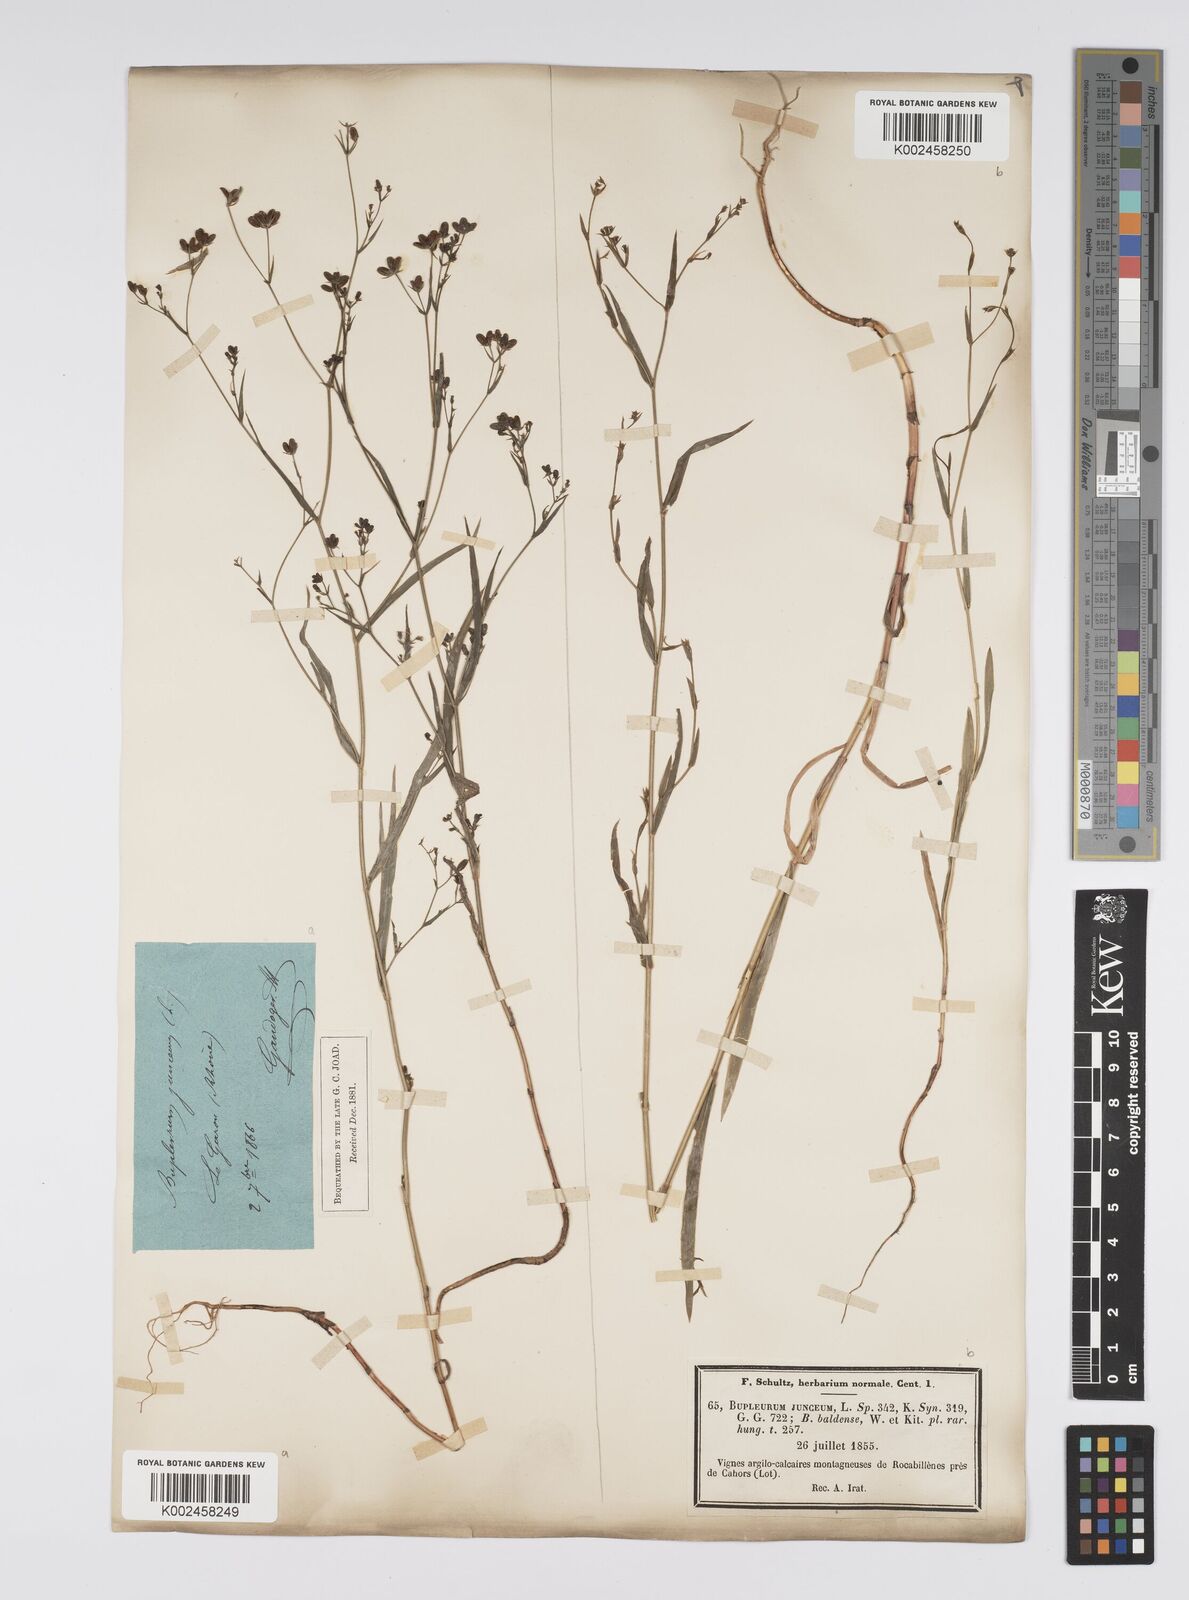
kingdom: Plantae
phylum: Tracheophyta
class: Magnoliopsida
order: Apiales
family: Apiaceae
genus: Bupleurum
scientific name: Bupleurum praealtum
